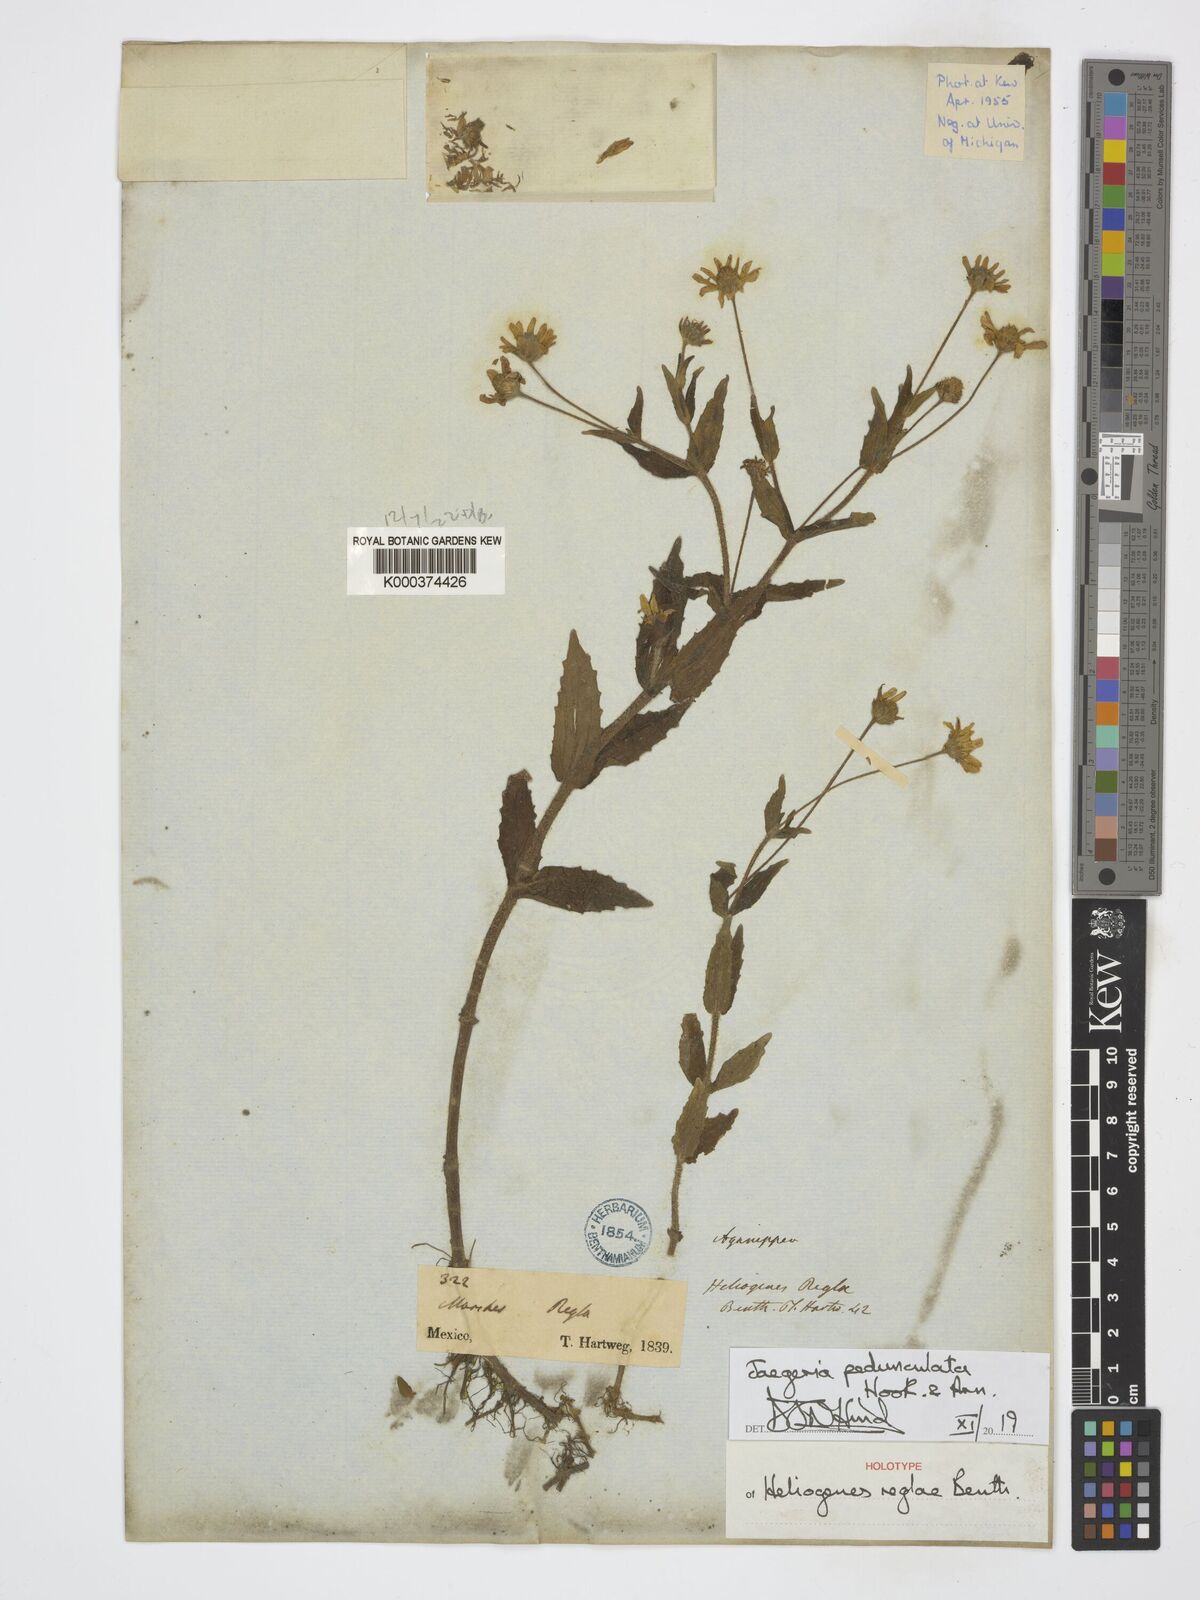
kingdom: Plantae
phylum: Tracheophyta
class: Magnoliopsida
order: Asterales
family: Asteraceae
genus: Jaegeria
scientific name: Jaegeria pedunculata
